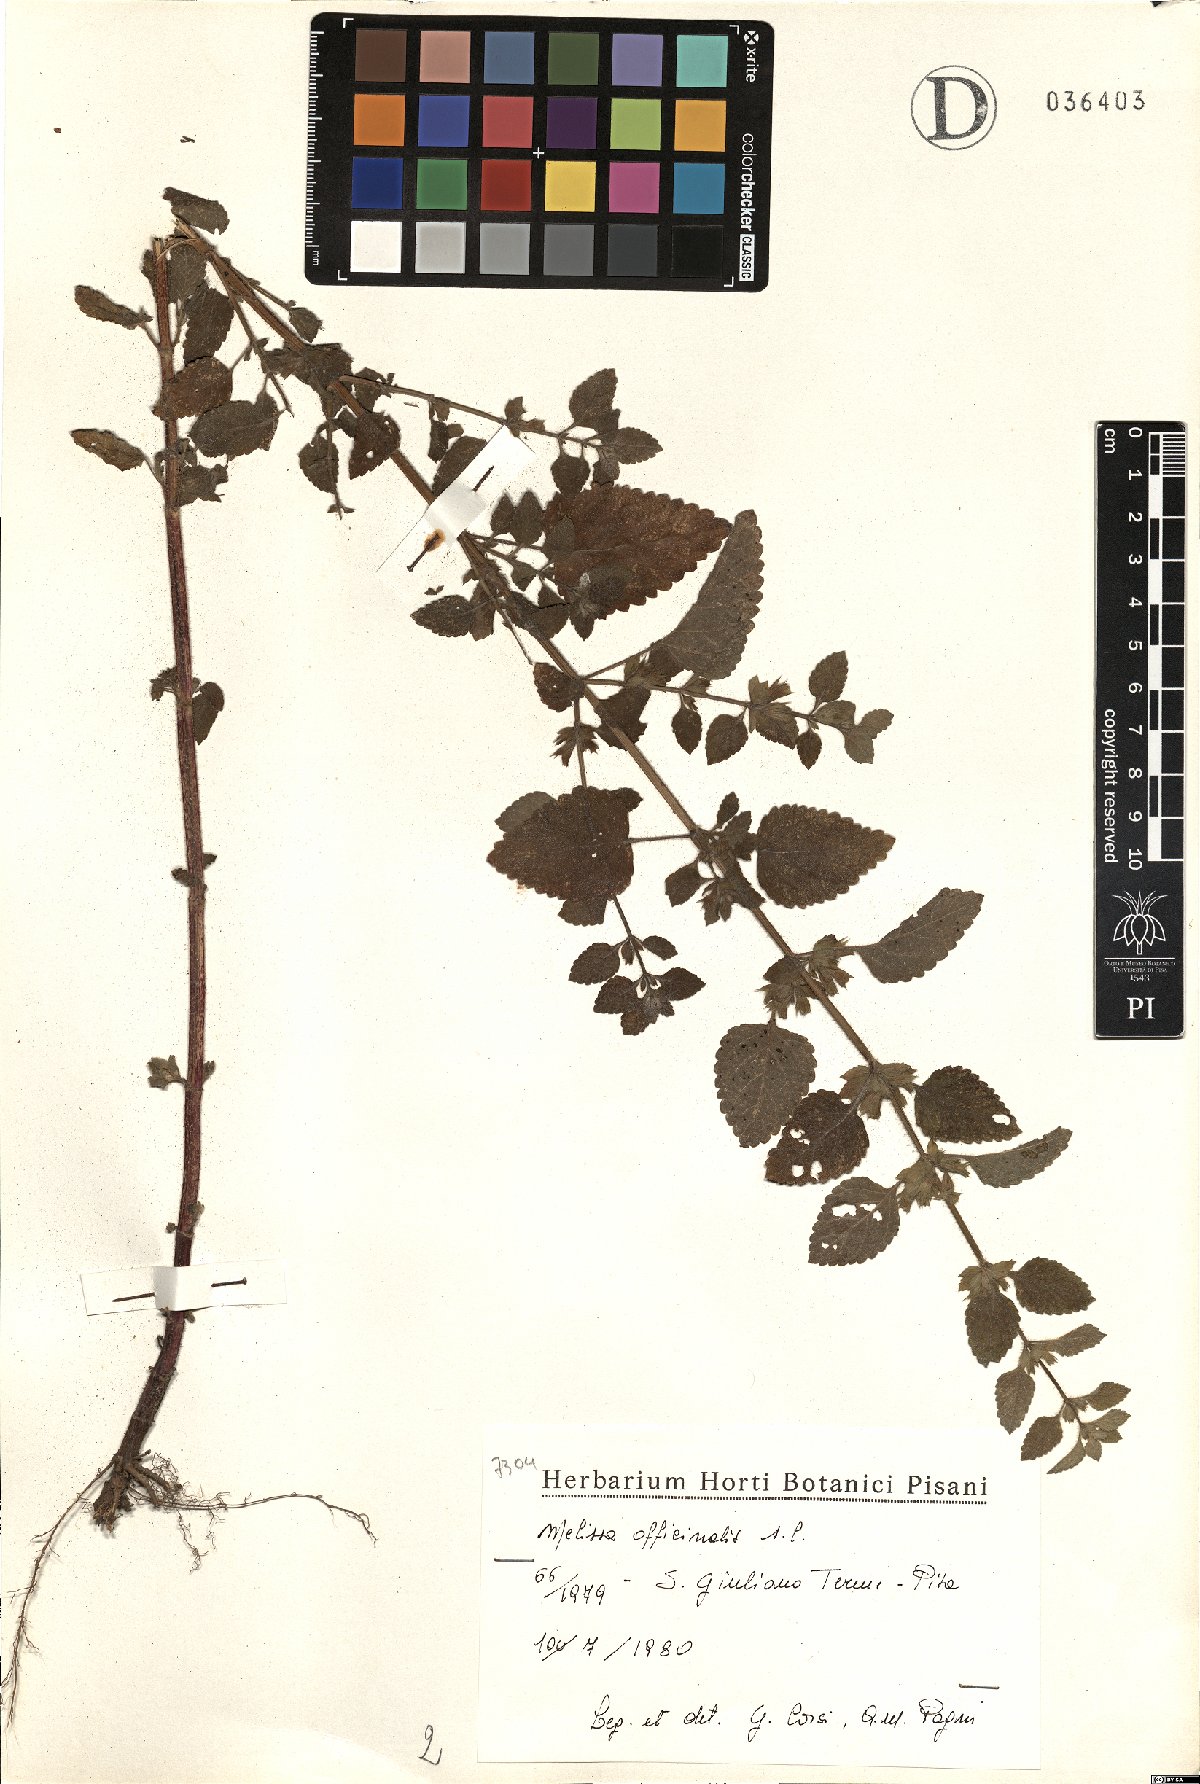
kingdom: Plantae
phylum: Tracheophyta
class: Magnoliopsida
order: Lamiales
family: Lamiaceae
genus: Melissa
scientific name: Melissa officinalis
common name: Balm
